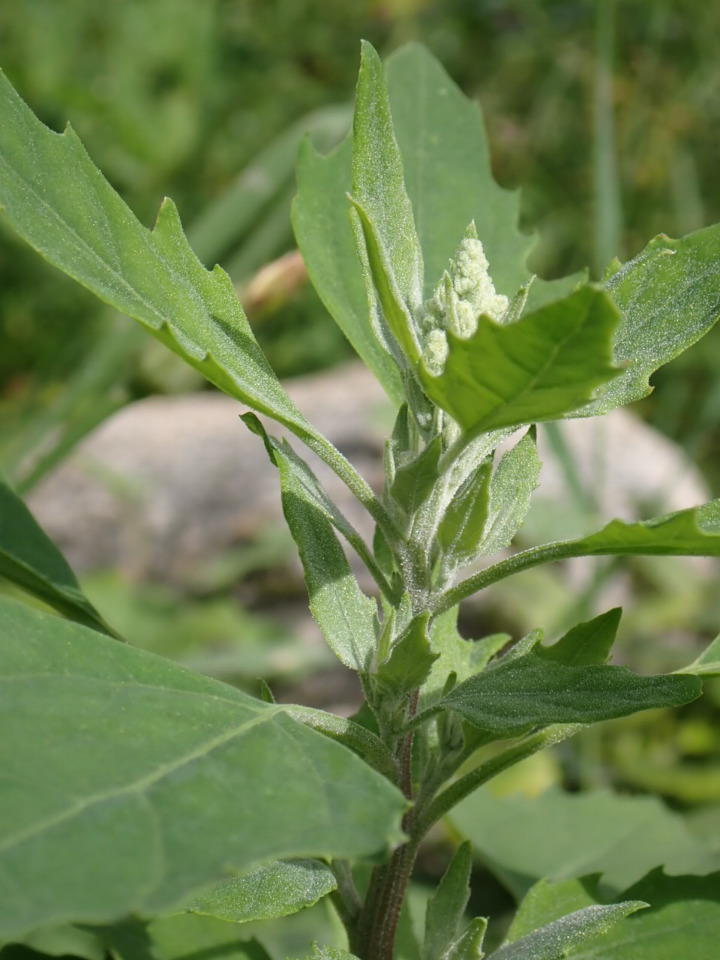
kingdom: Plantae
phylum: Tracheophyta
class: Magnoliopsida
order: Caryophyllales
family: Amaranthaceae
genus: Chenopodium
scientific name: Chenopodium album
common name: Hvidmelet gåsefod
